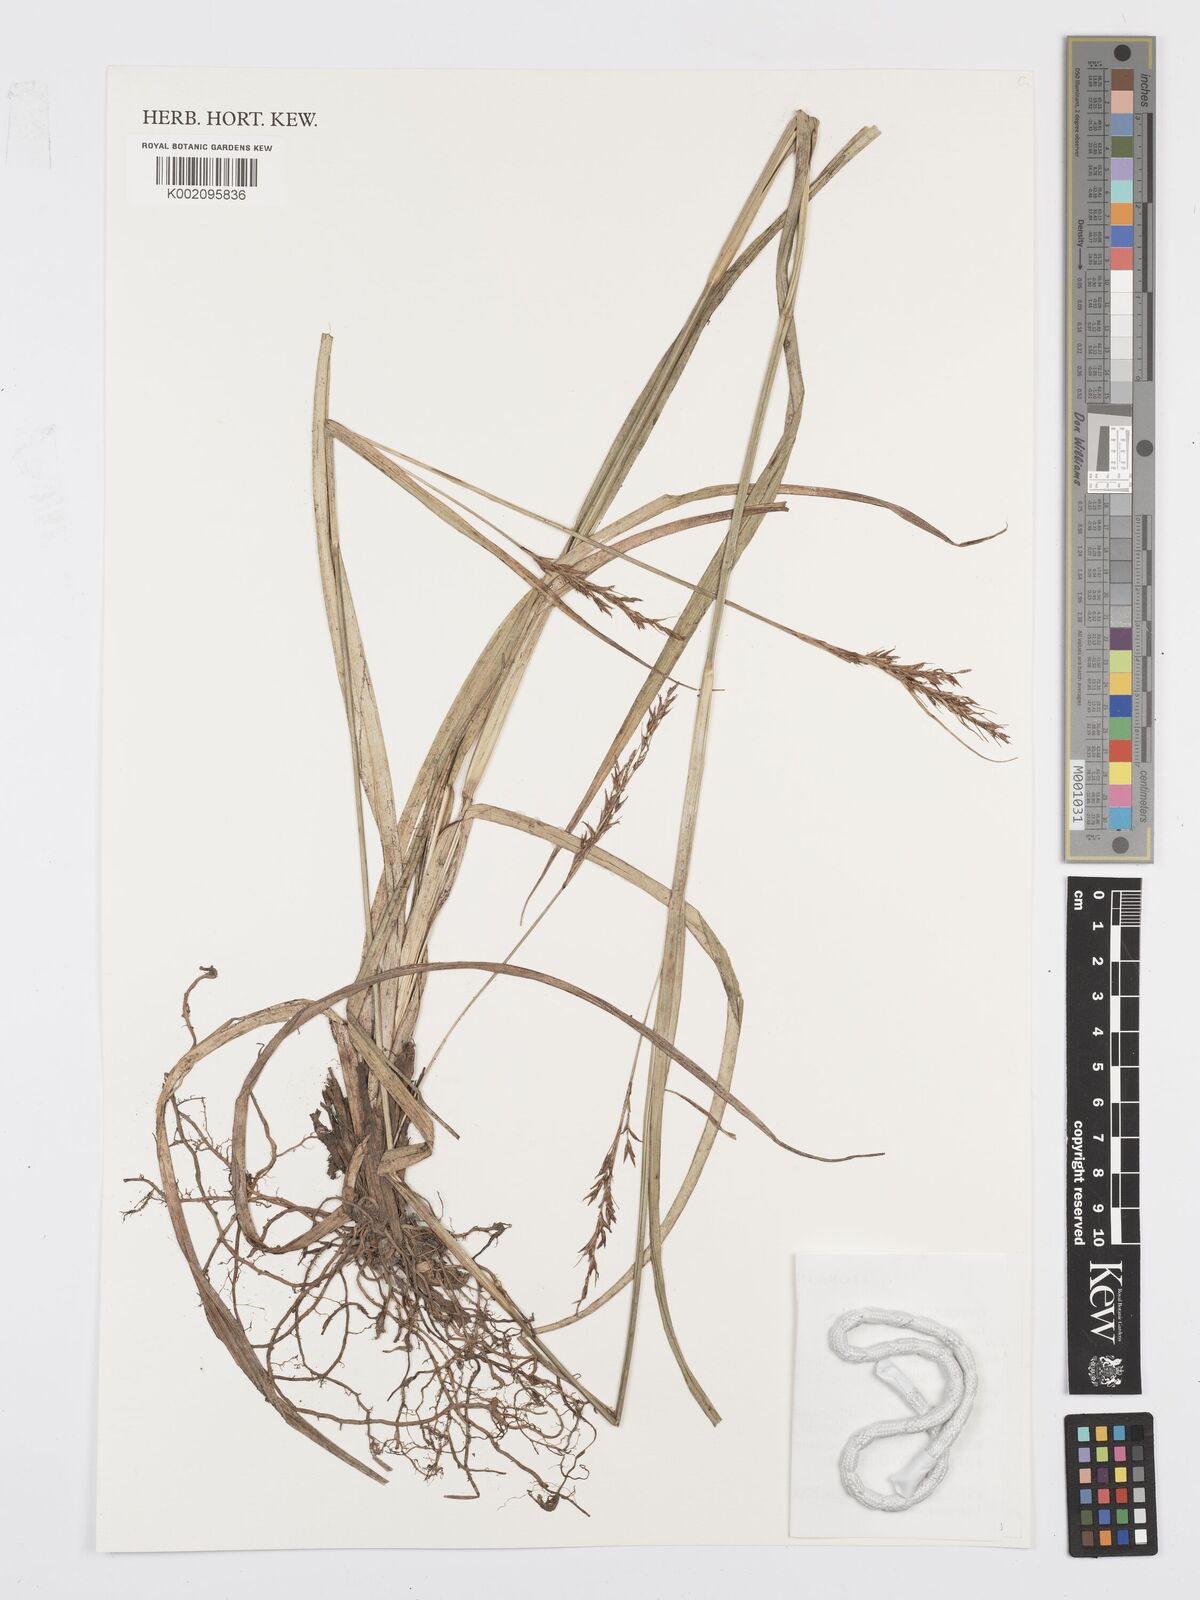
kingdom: Plantae
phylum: Tracheophyta
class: Liliopsida
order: Poales
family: Cyperaceae
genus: Carex
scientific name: Carex echinochloe
